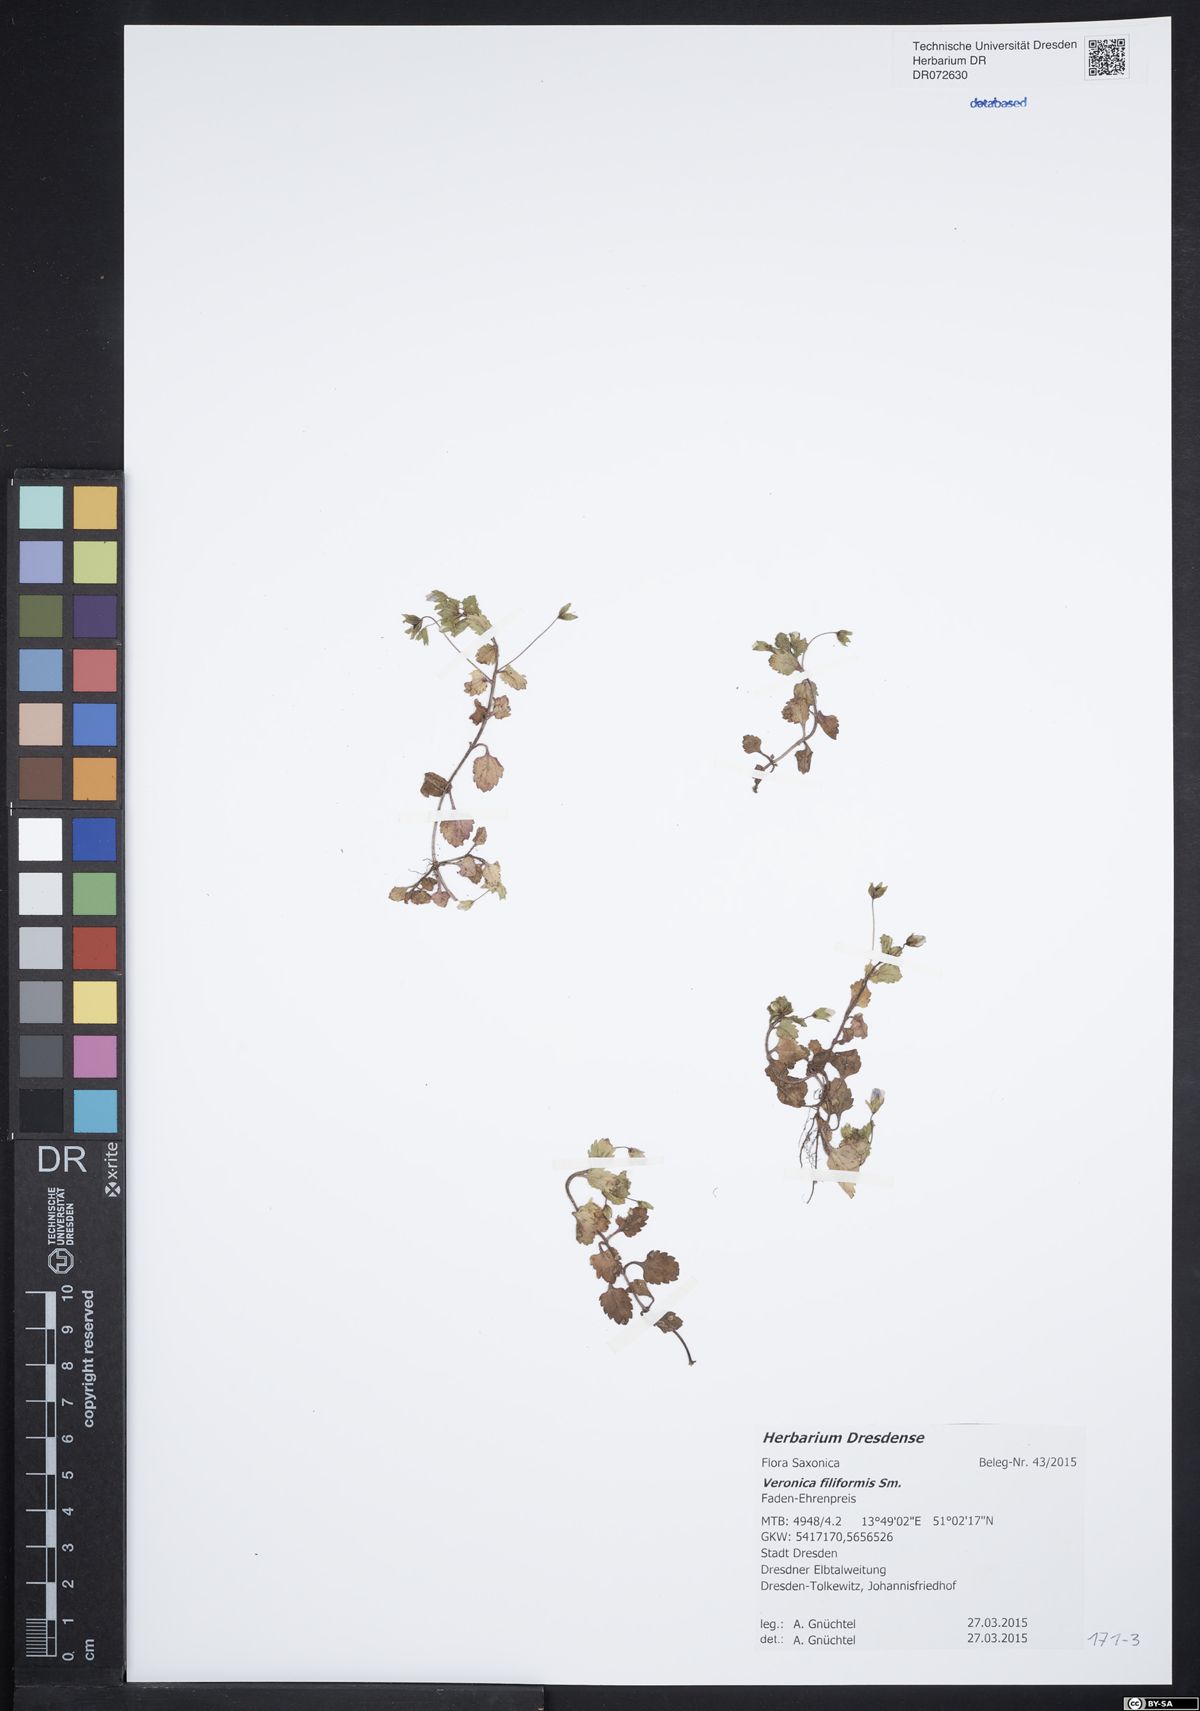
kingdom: Plantae
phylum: Tracheophyta
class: Magnoliopsida
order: Lamiales
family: Plantaginaceae
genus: Veronica
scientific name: Veronica filiformis
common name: Slender speedwell
